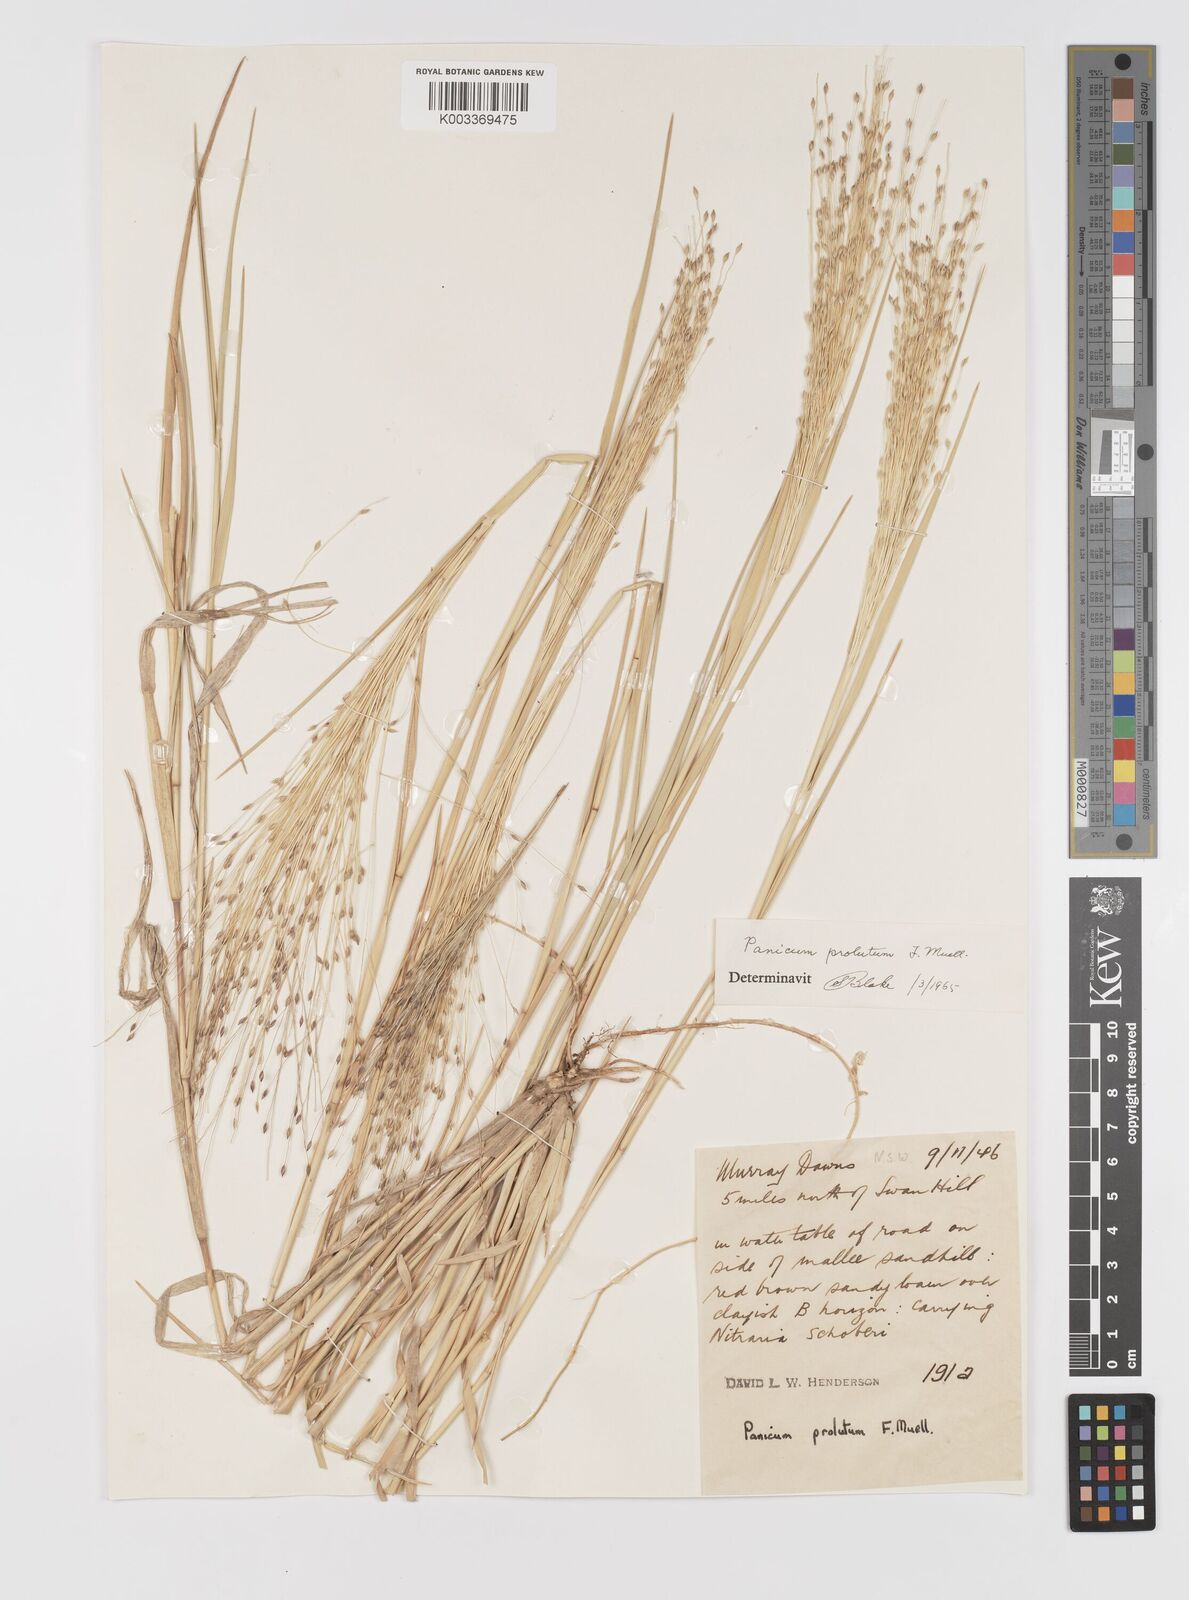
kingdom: Plantae
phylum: Tracheophyta
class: Liliopsida
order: Poales
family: Poaceae
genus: Walwhalleya
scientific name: Walwhalleya proluta
